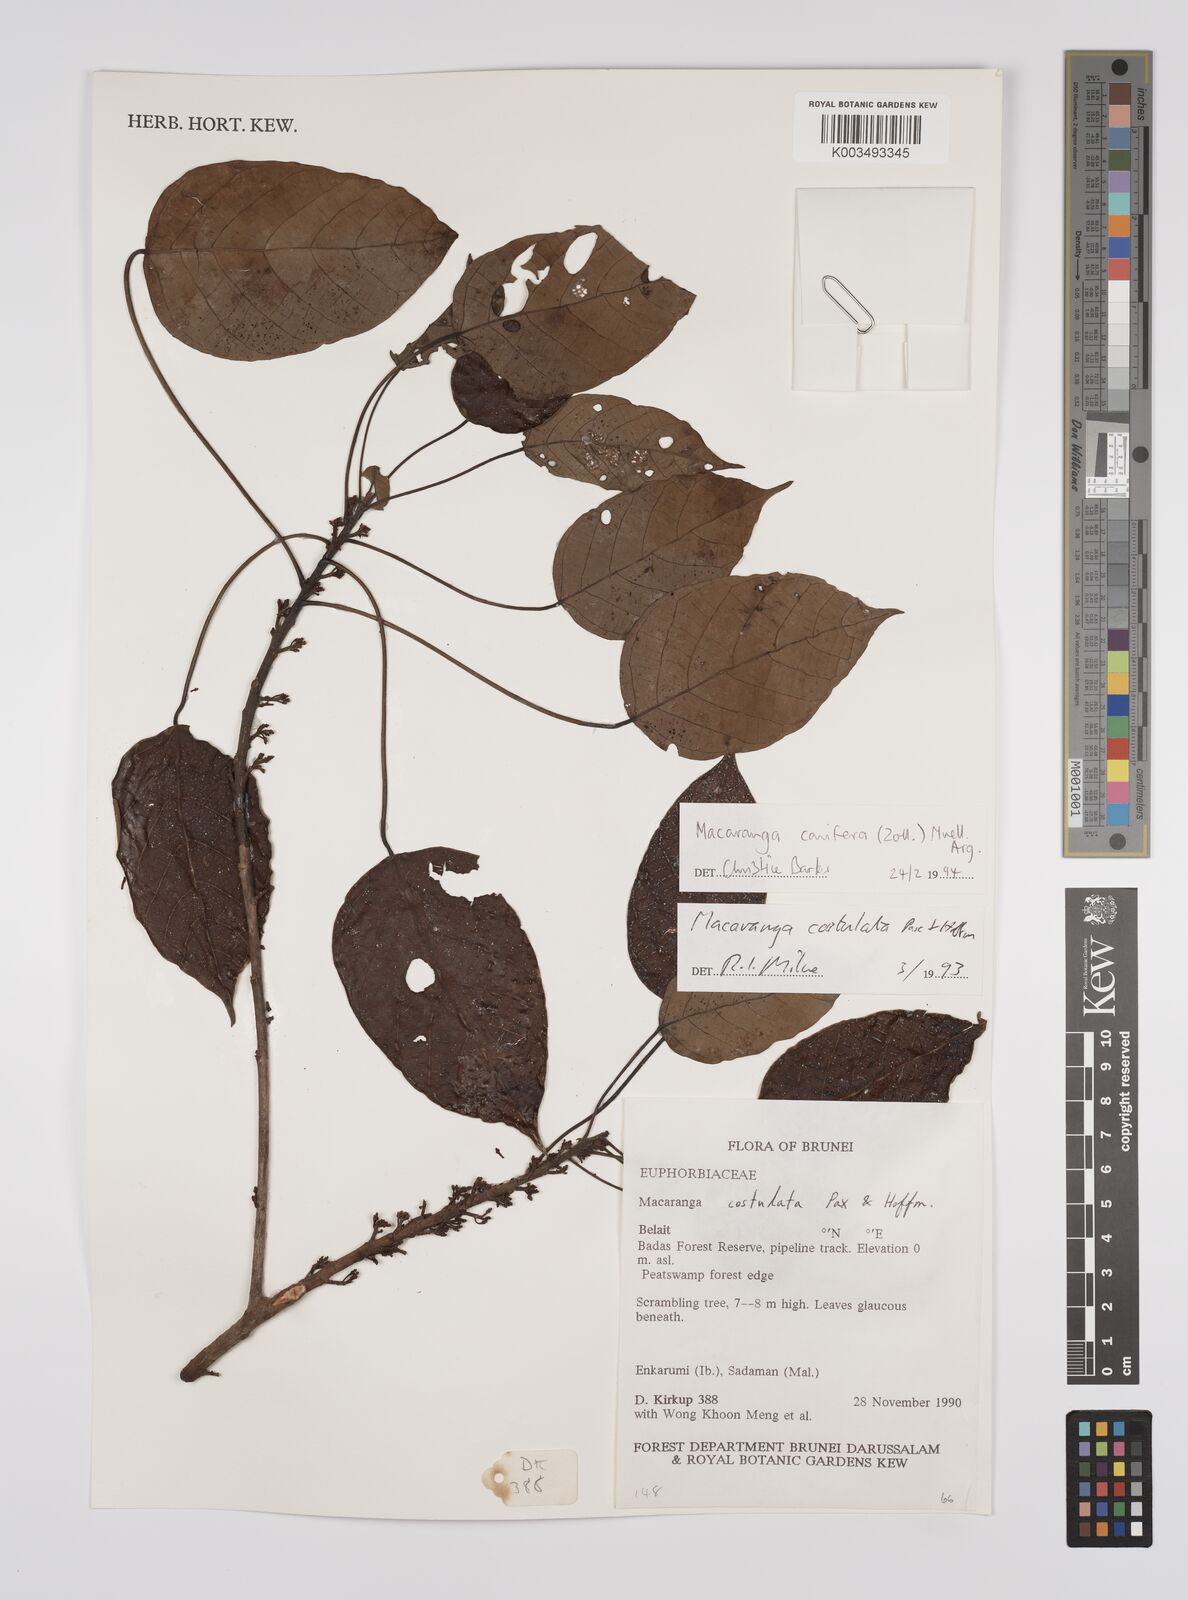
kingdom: Plantae
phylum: Tracheophyta
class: Magnoliopsida
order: Malpighiales
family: Euphorbiaceae
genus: Macaranga
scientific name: Macaranga conifera
